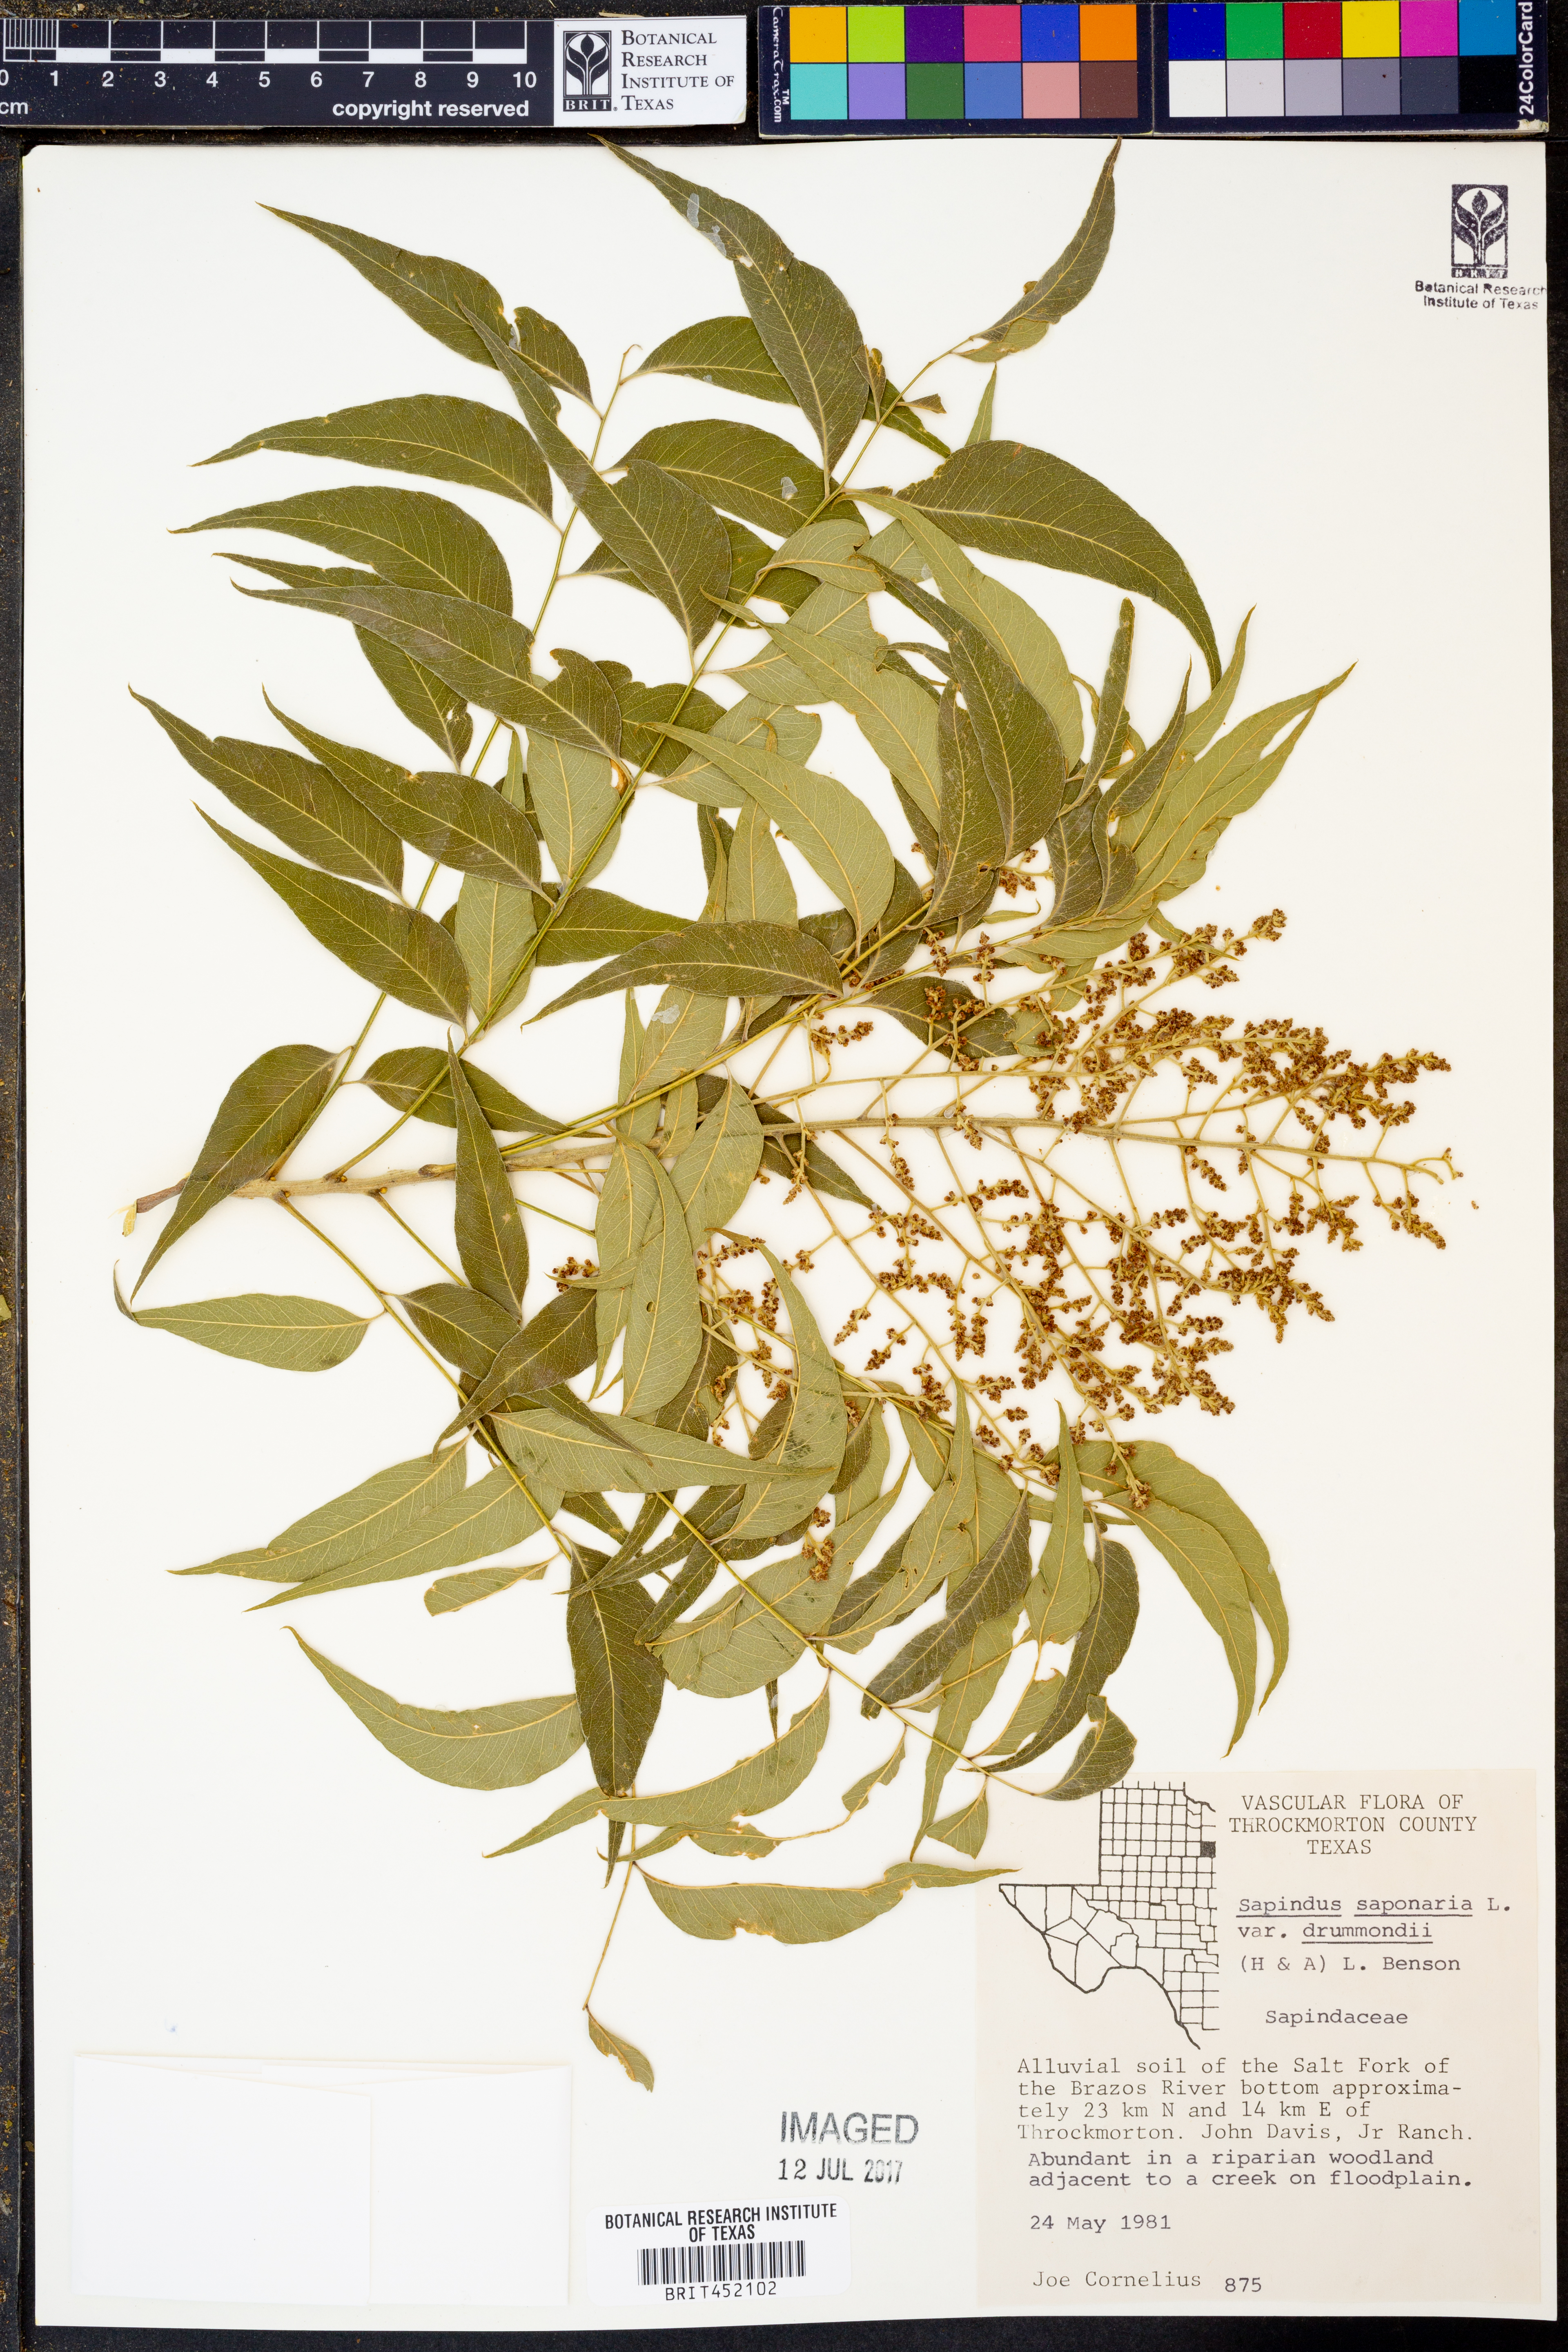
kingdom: Plantae
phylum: Tracheophyta
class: Magnoliopsida
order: Sapindales
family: Sapindaceae
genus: Sapindus
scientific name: Sapindus saponaria
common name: Wingleaf soapberry
